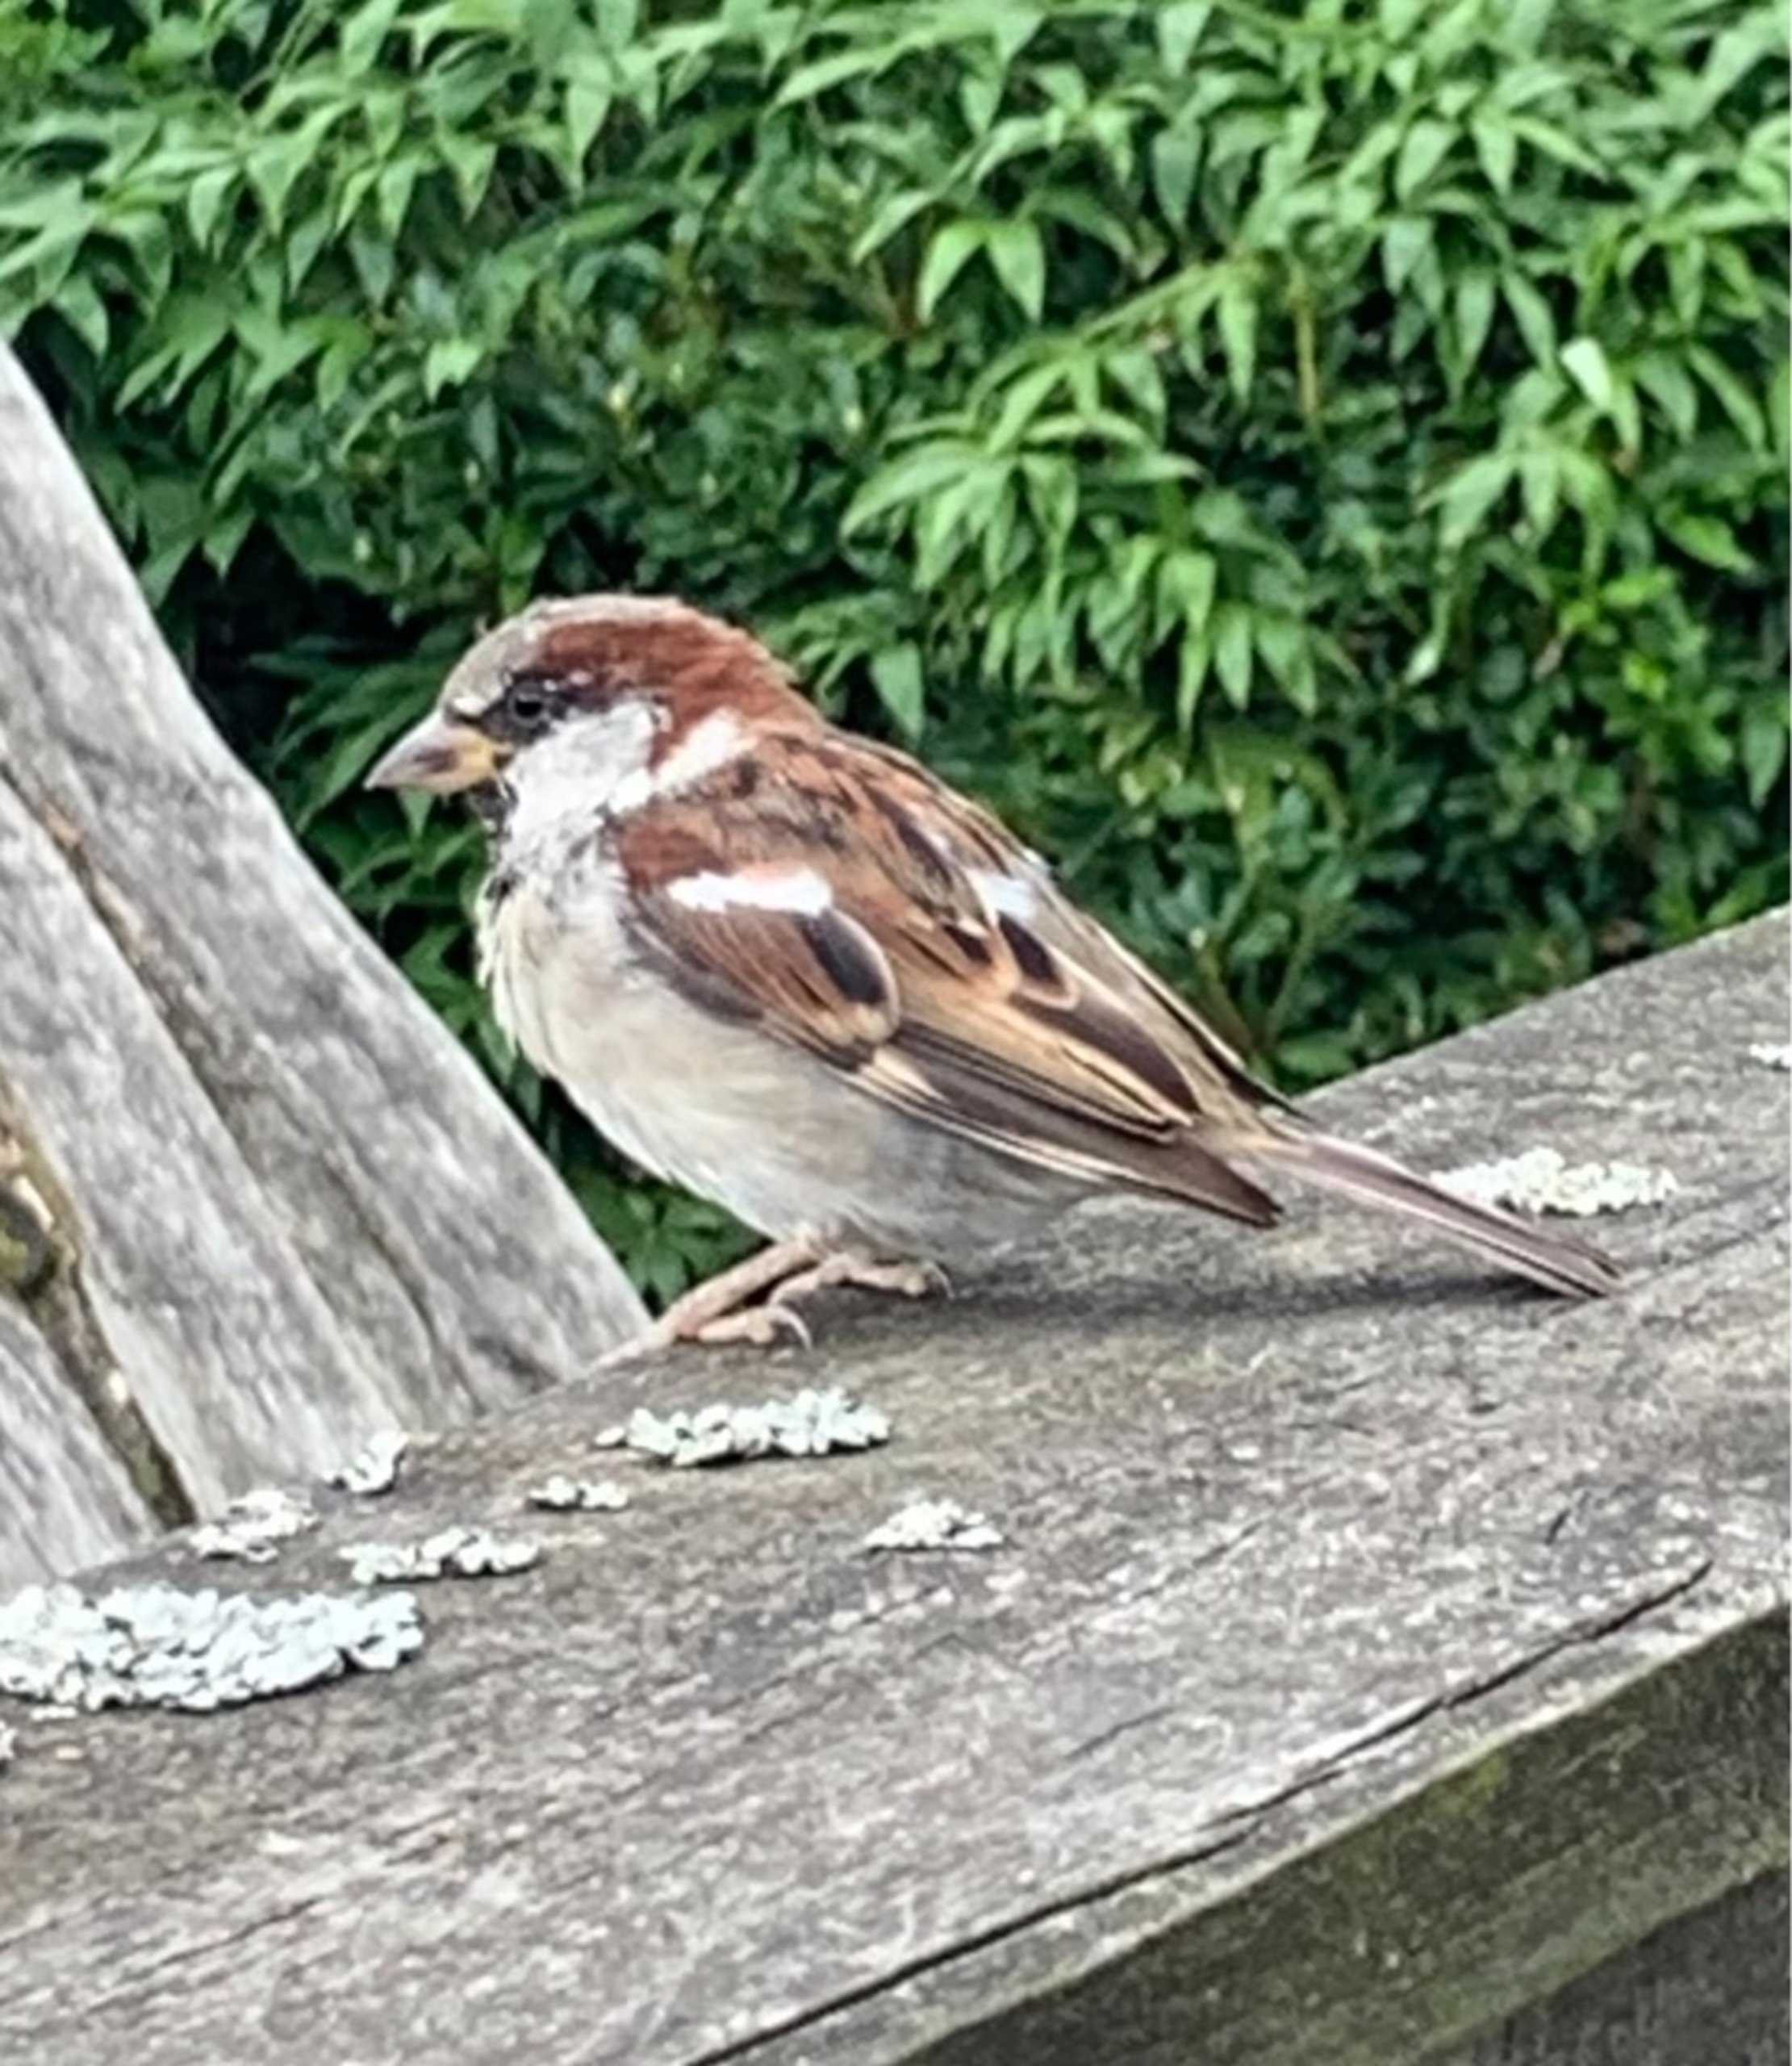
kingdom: Animalia
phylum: Chordata
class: Aves
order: Passeriformes
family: Passeridae
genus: Passer
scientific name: Passer domesticus
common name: Gråspurv
